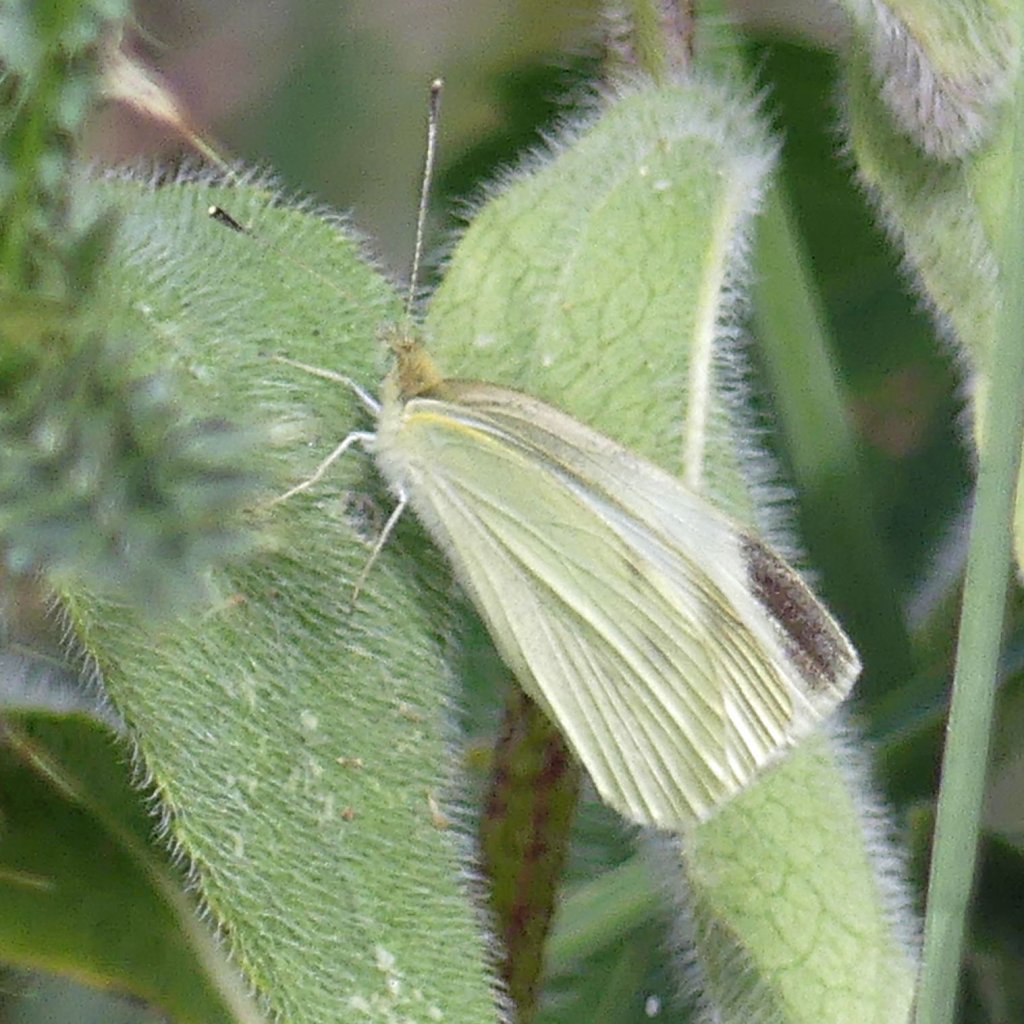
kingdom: Animalia
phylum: Arthropoda
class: Insecta
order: Lepidoptera
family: Pieridae
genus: Pieris
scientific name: Pieris rapae
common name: Cabbage White
